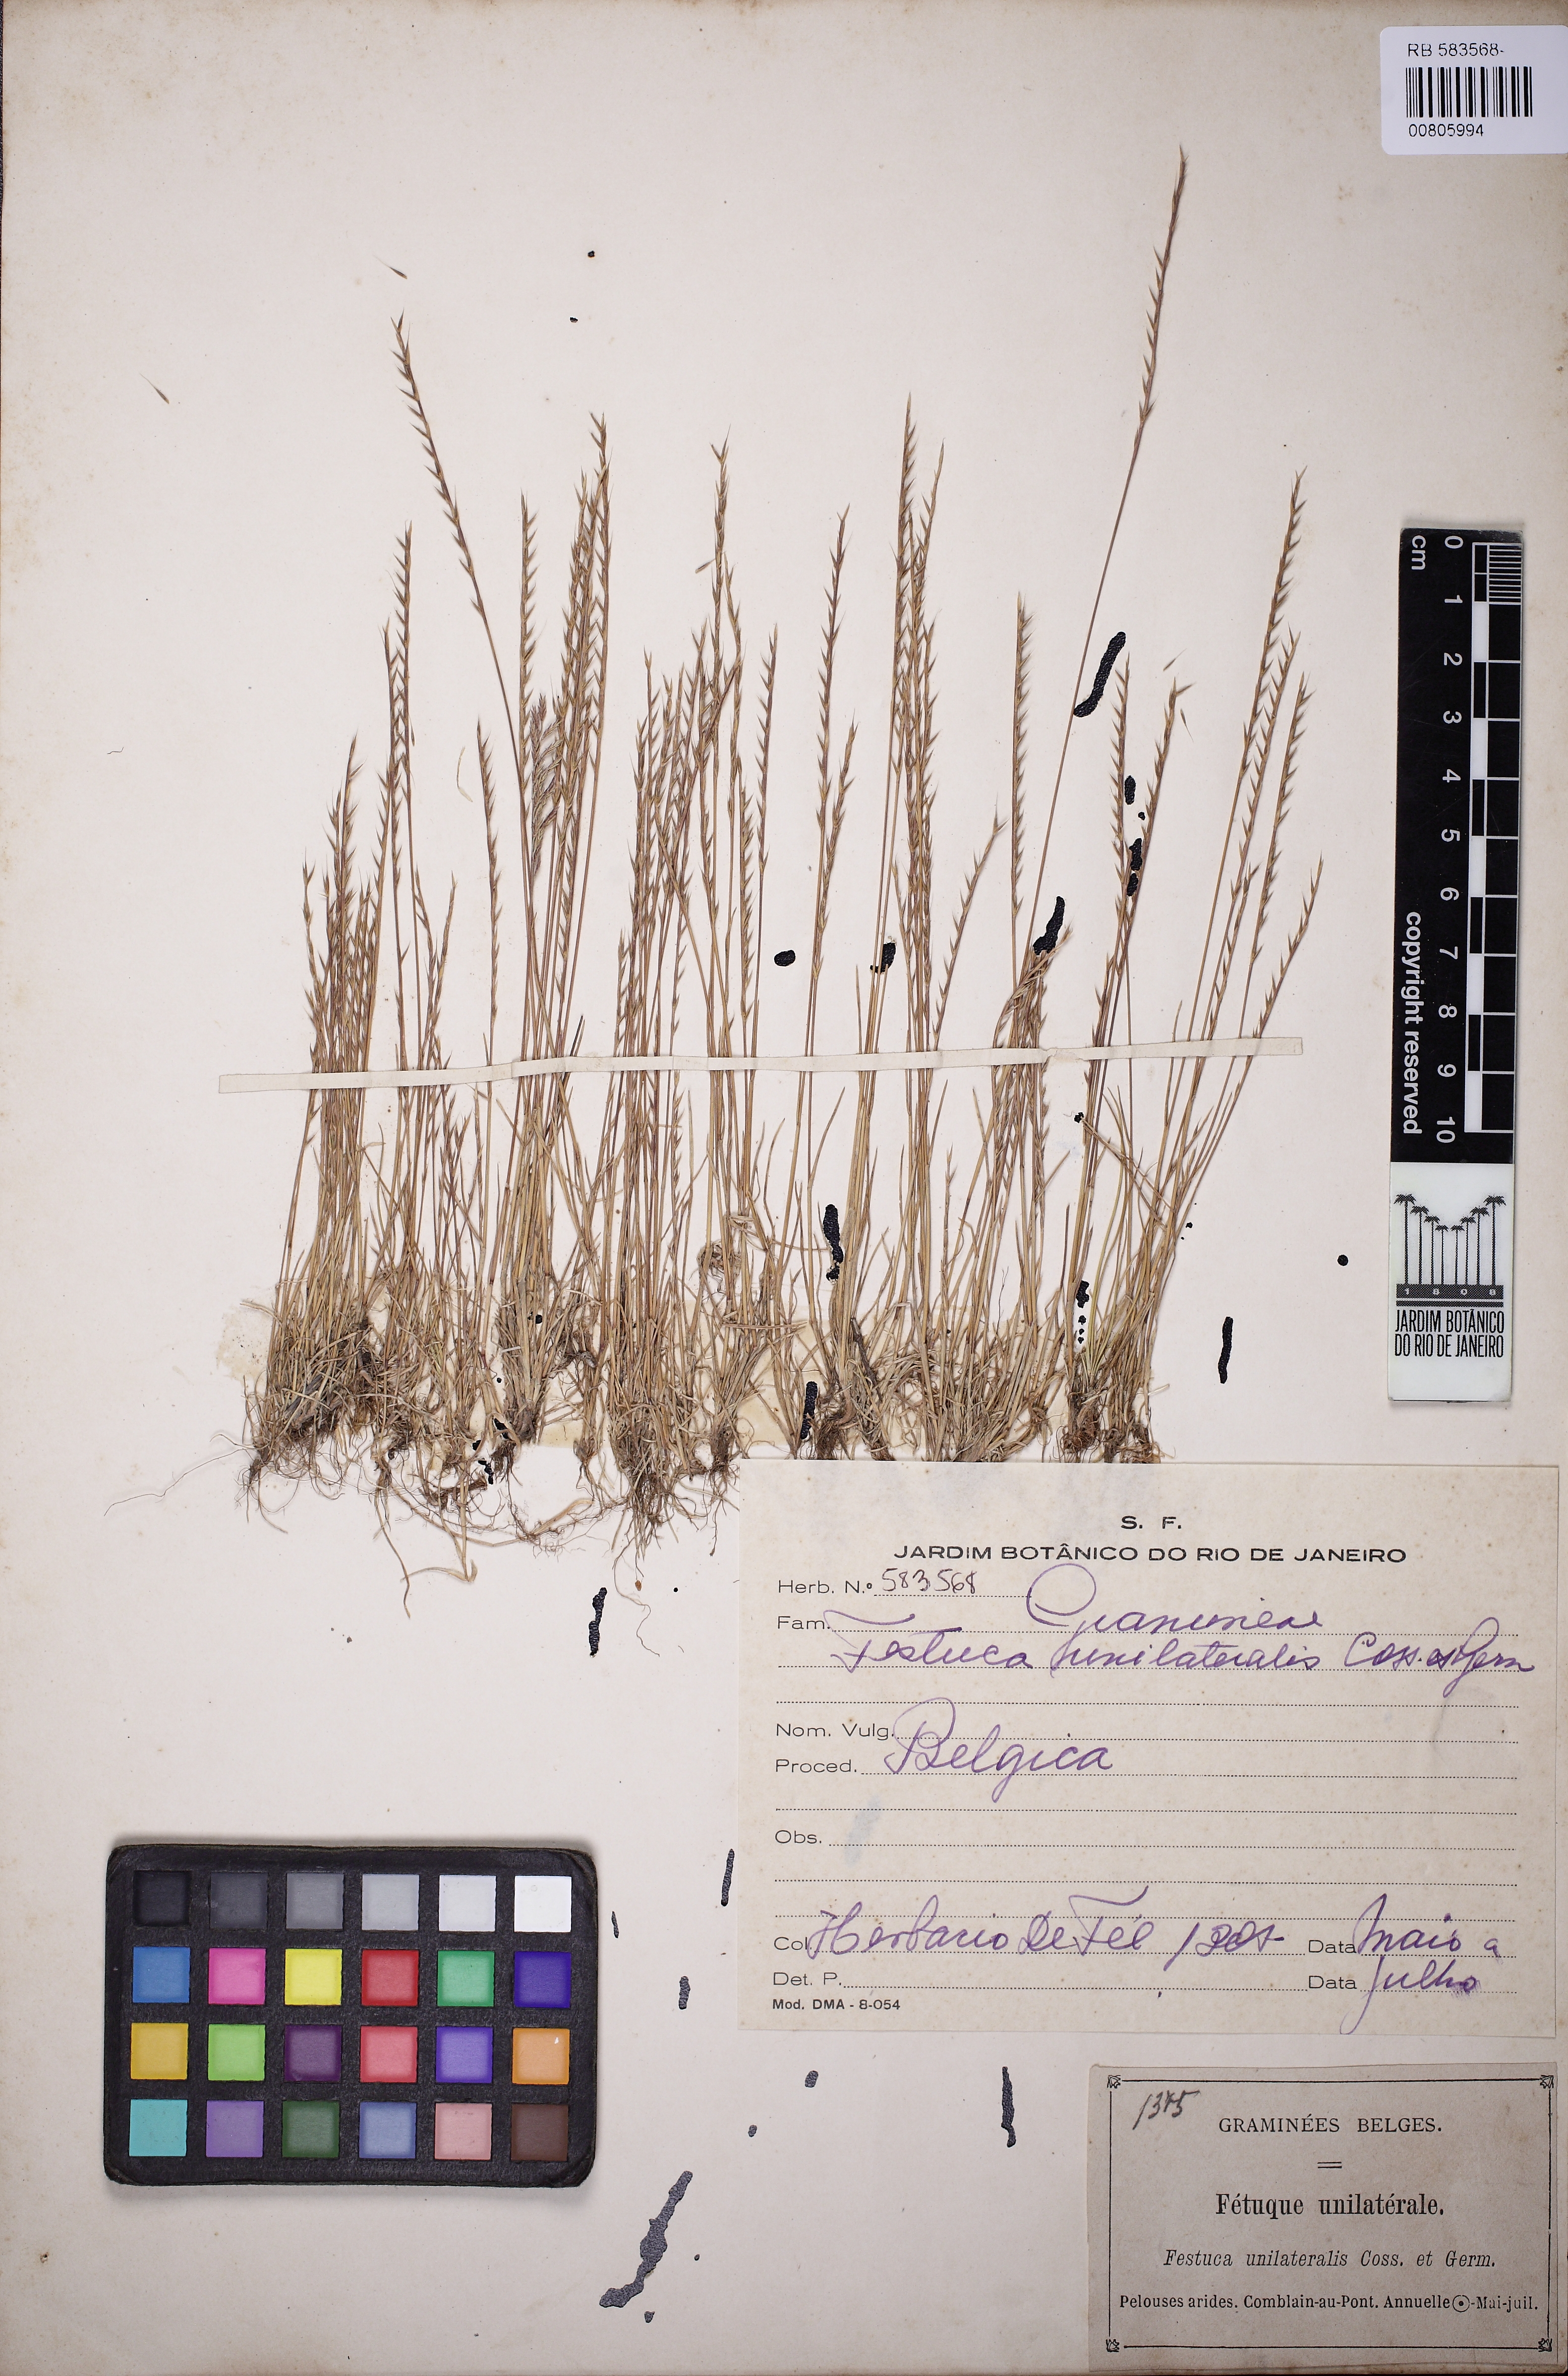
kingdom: Plantae
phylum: Tracheophyta
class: Liliopsida
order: Poales
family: Poaceae
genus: Festuca
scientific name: Festuca maritima
